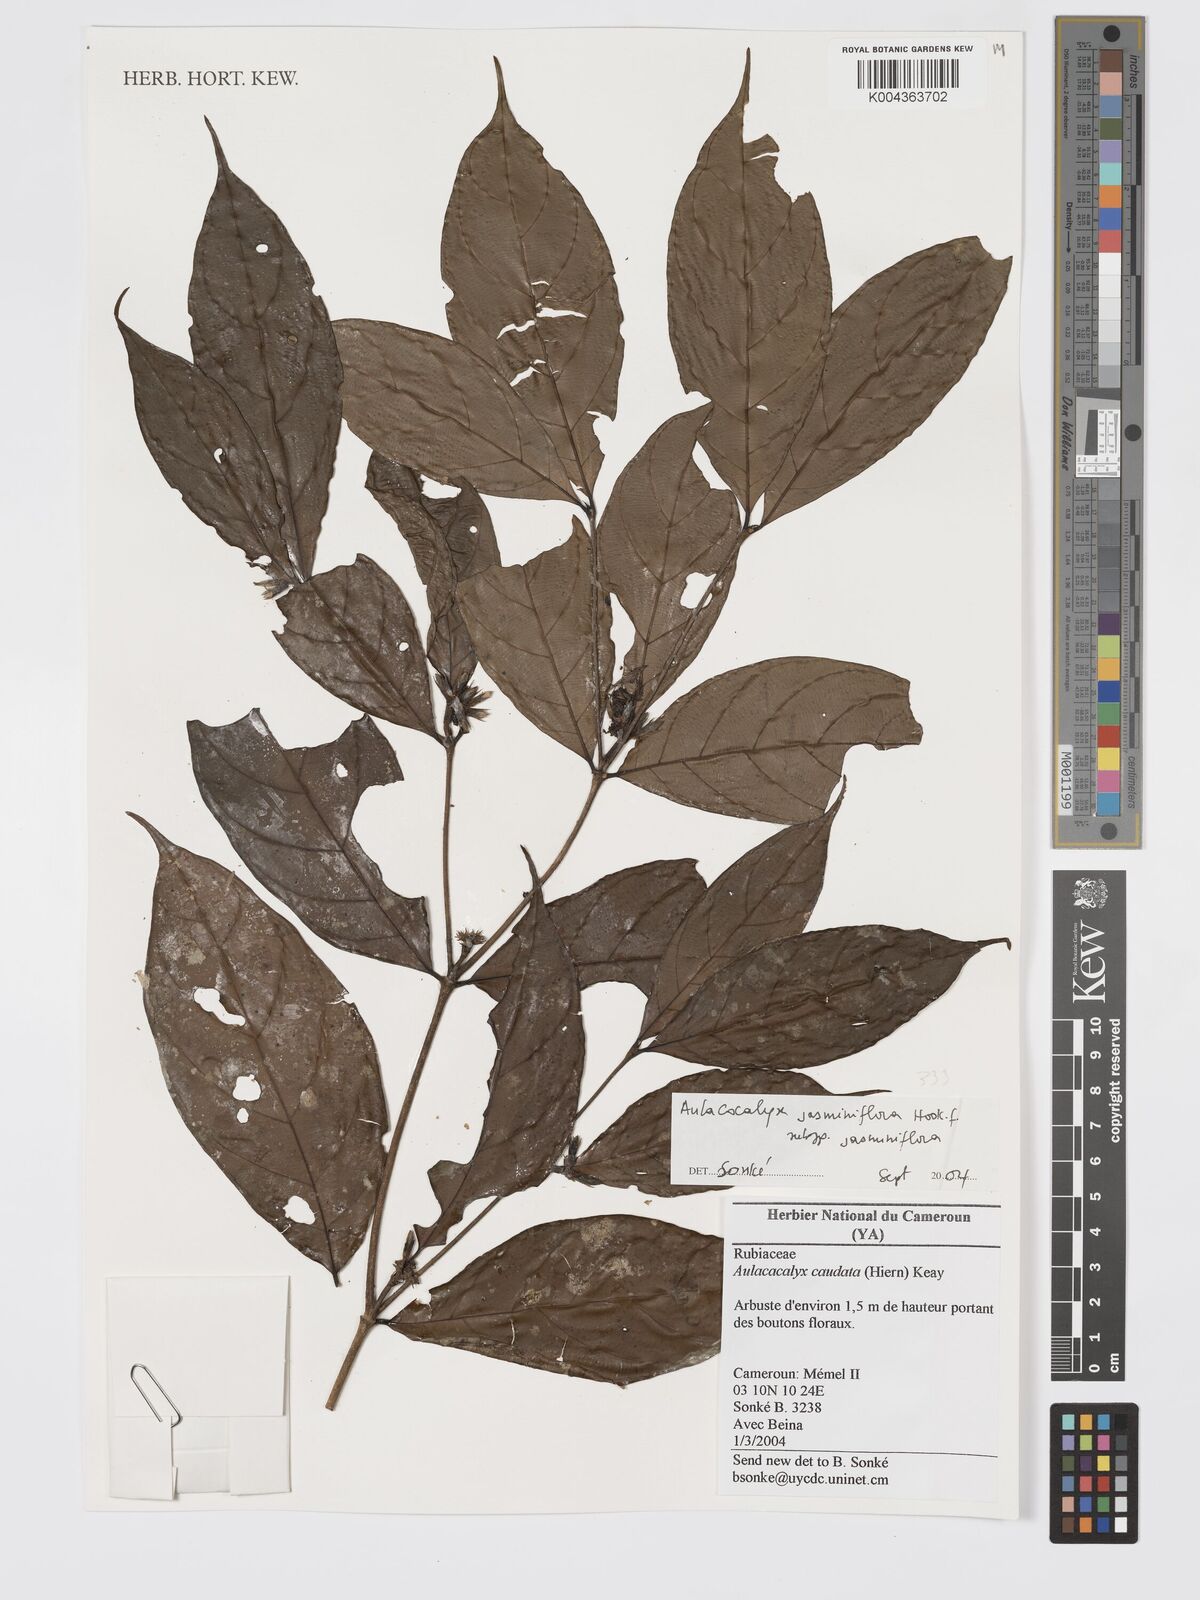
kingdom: Plantae
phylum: Tracheophyta
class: Magnoliopsida
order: Gentianales
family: Rubiaceae
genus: Aulacocalyx
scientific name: Aulacocalyx jasminiflora
